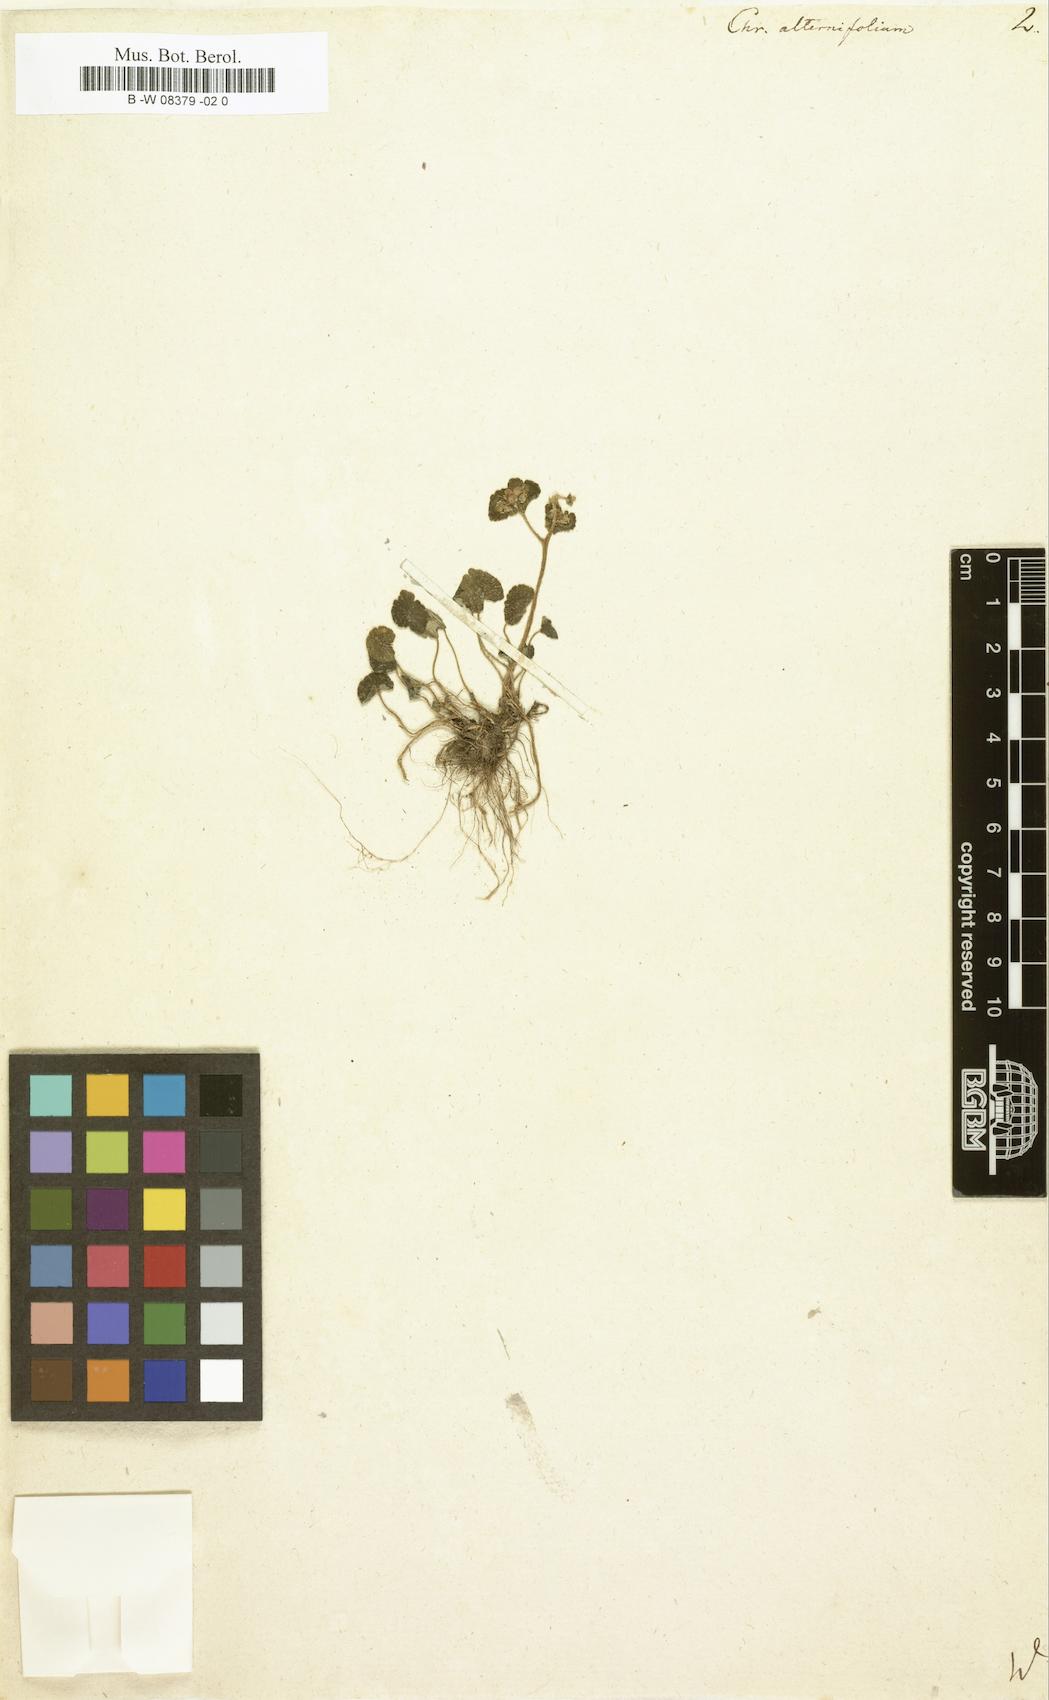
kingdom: Plantae
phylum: Tracheophyta
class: Magnoliopsida
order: Saxifragales
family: Saxifragaceae
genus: Chrysosplenium
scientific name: Chrysosplenium alternifolium
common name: Alternate-leaved golden-saxifrage
